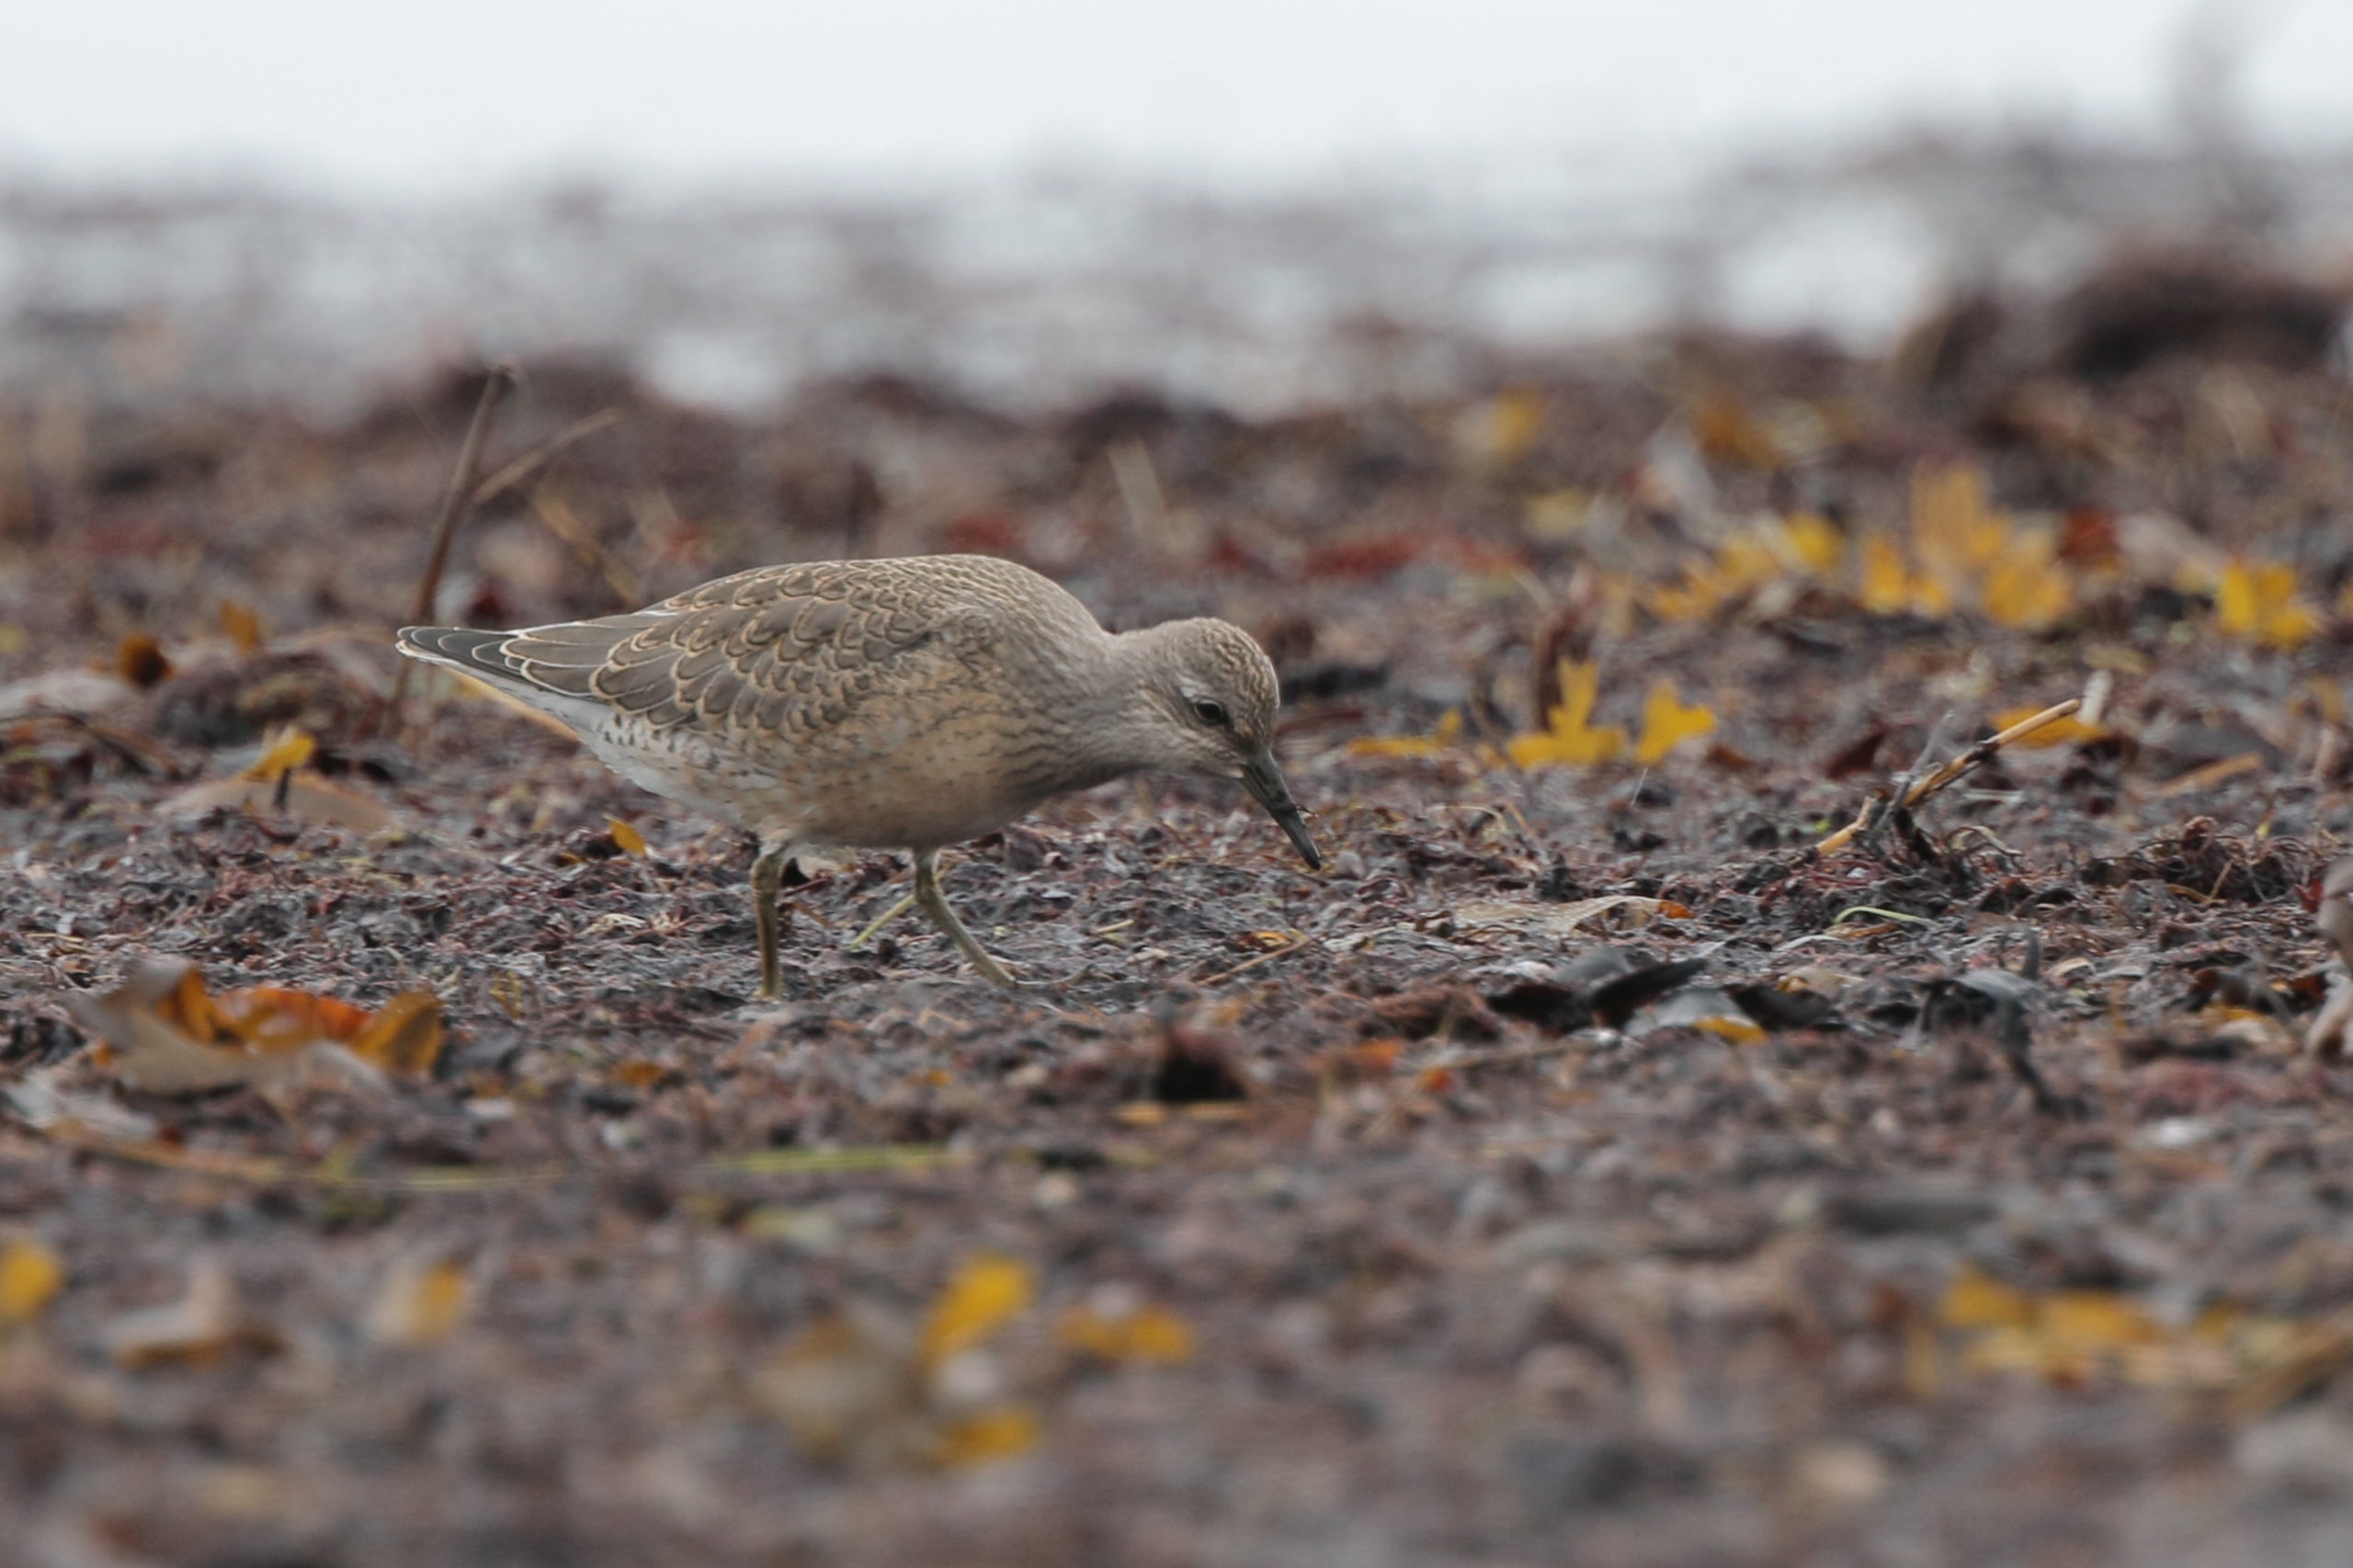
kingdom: Animalia
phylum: Chordata
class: Aves
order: Charadriiformes
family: Scolopacidae
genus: Calidris
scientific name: Calidris canutus
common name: Islandsk ryle
